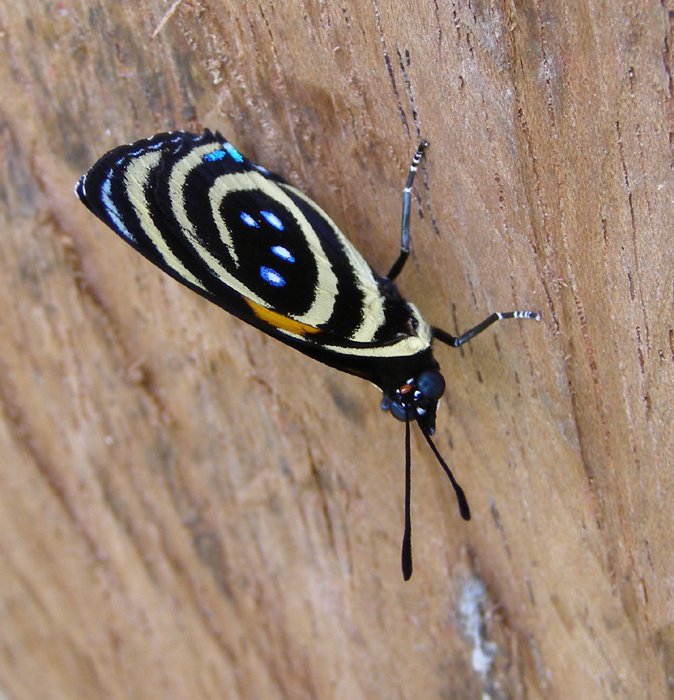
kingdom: Animalia
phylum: Arthropoda
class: Insecta
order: Lepidoptera
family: Nymphalidae
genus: Catagramma
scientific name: Catagramma
